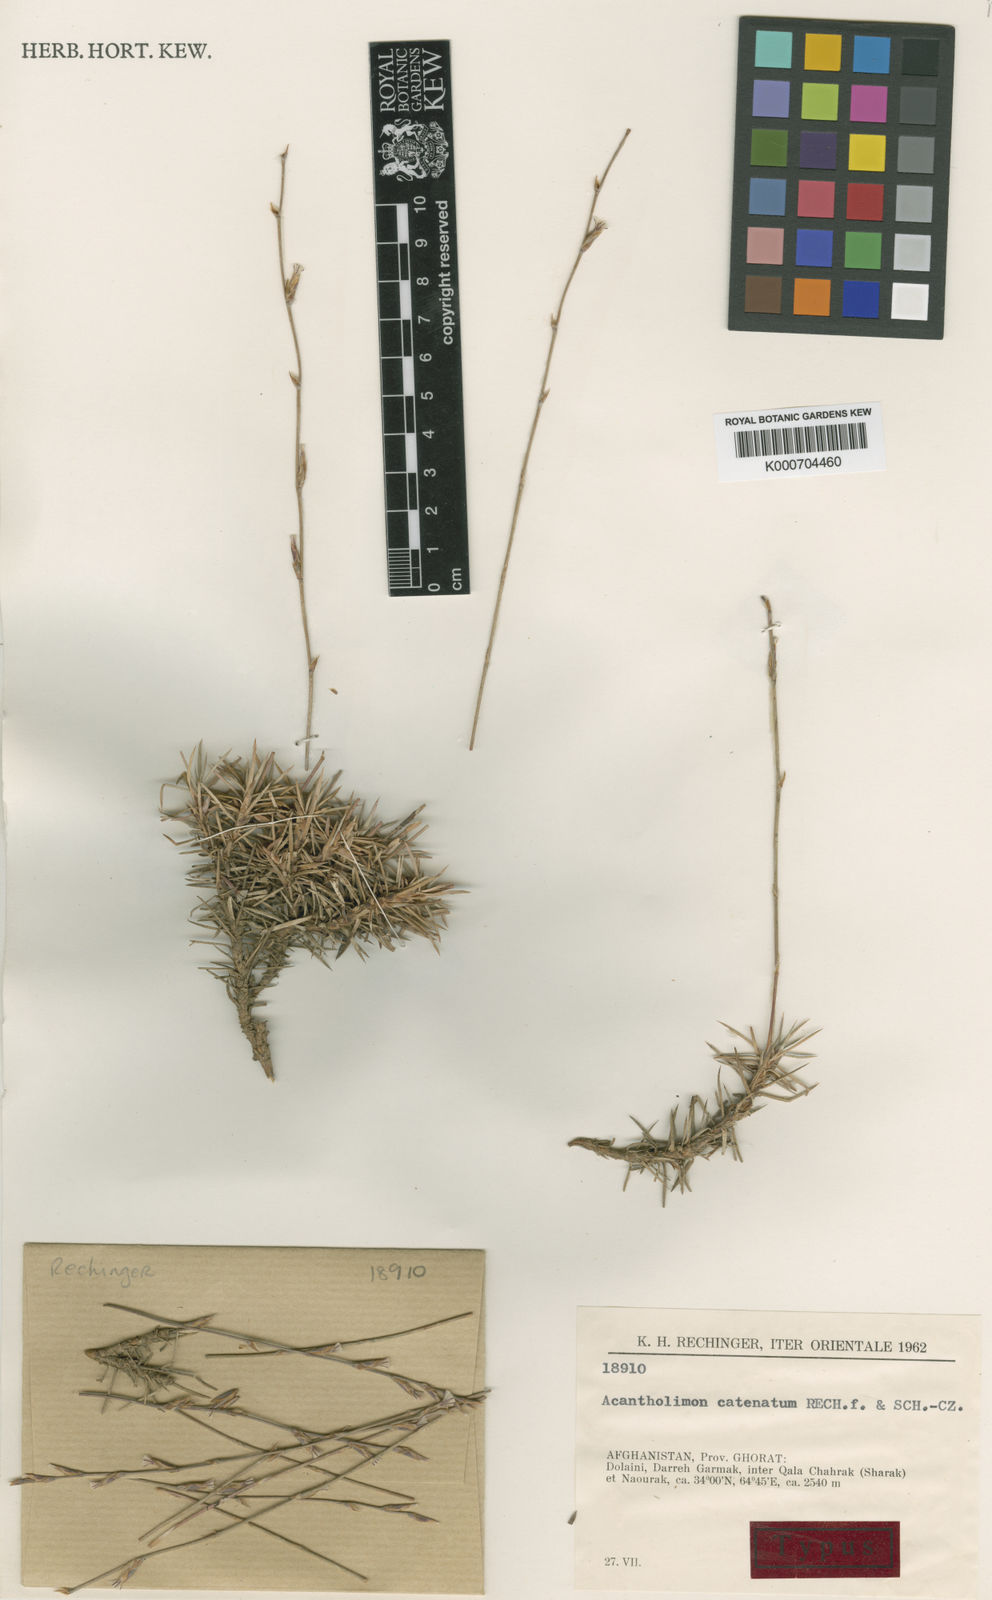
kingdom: Plantae
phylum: Tracheophyta
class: Magnoliopsida
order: Caryophyllales
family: Plumbaginaceae
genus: Acantholimon
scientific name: Acantholimon catenatum
